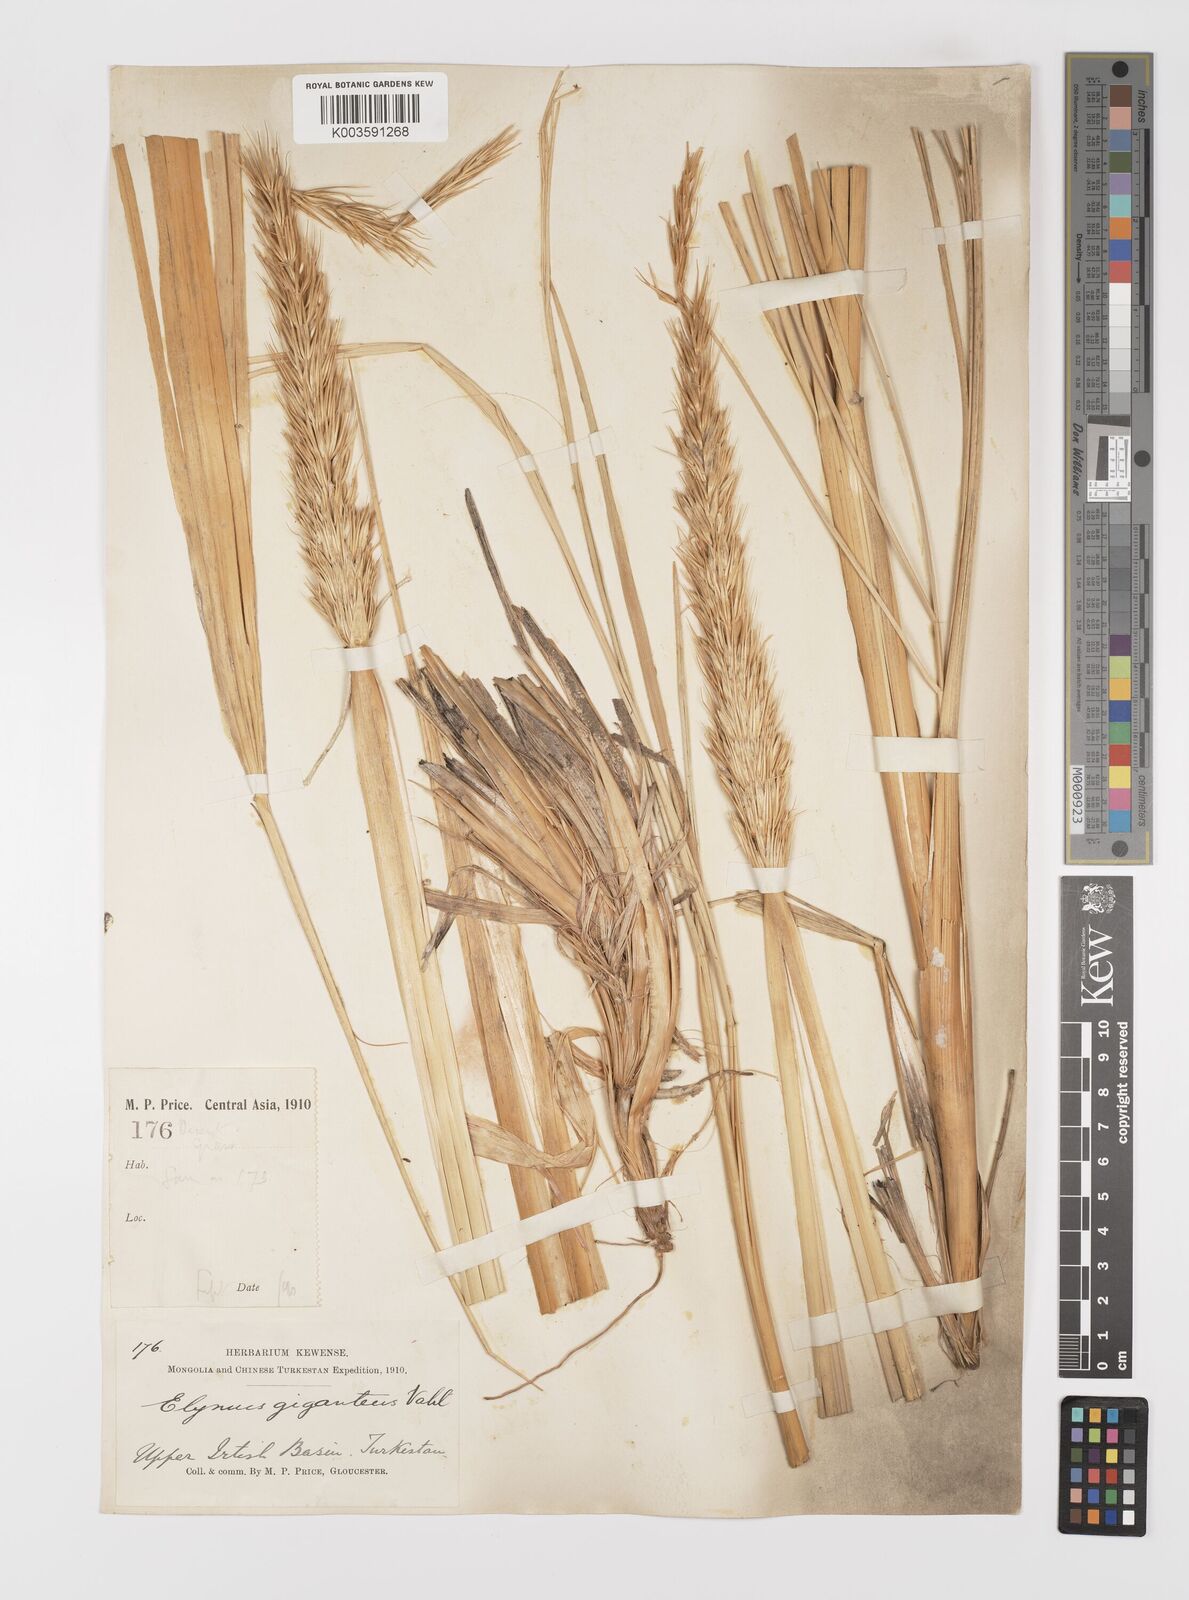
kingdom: Plantae
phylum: Tracheophyta
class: Liliopsida
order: Poales
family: Poaceae
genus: Leymus
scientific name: Leymus racemosus
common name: Mammoth wildrye
